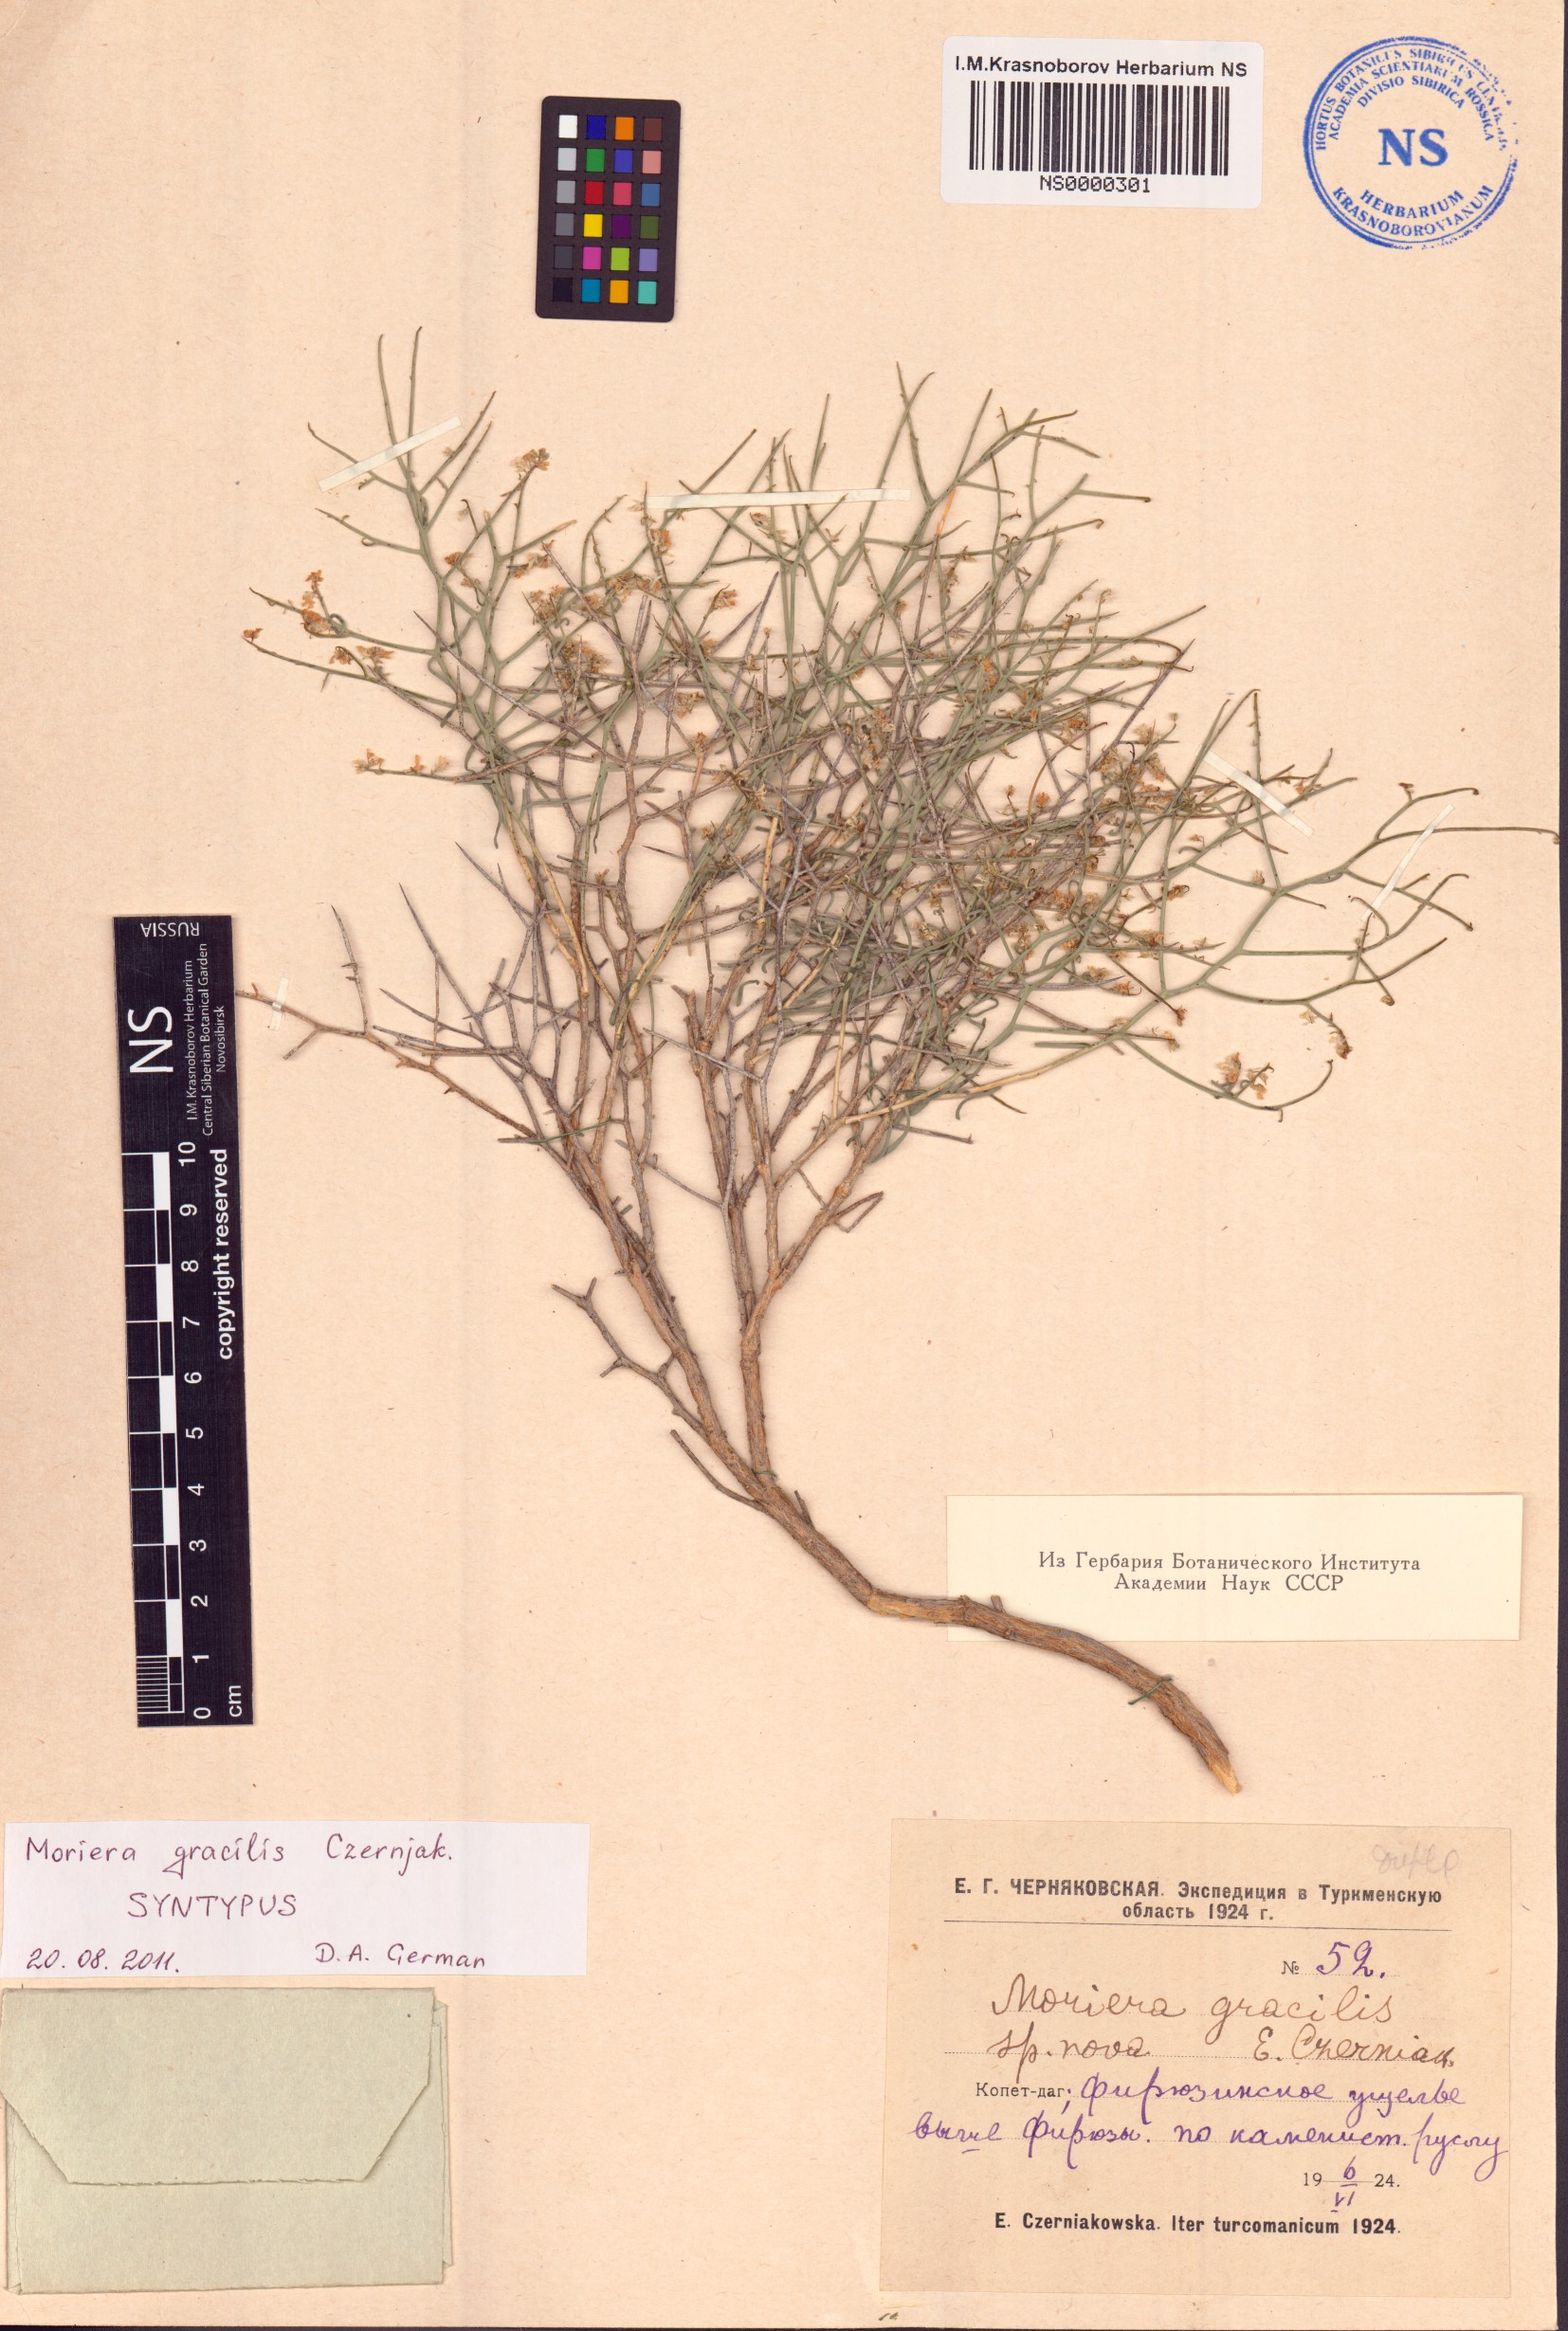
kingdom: Plantae
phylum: Tracheophyta
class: Magnoliopsida
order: Brassicales
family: Brassicaceae
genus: Aethionema
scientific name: Aethionema spinosum
